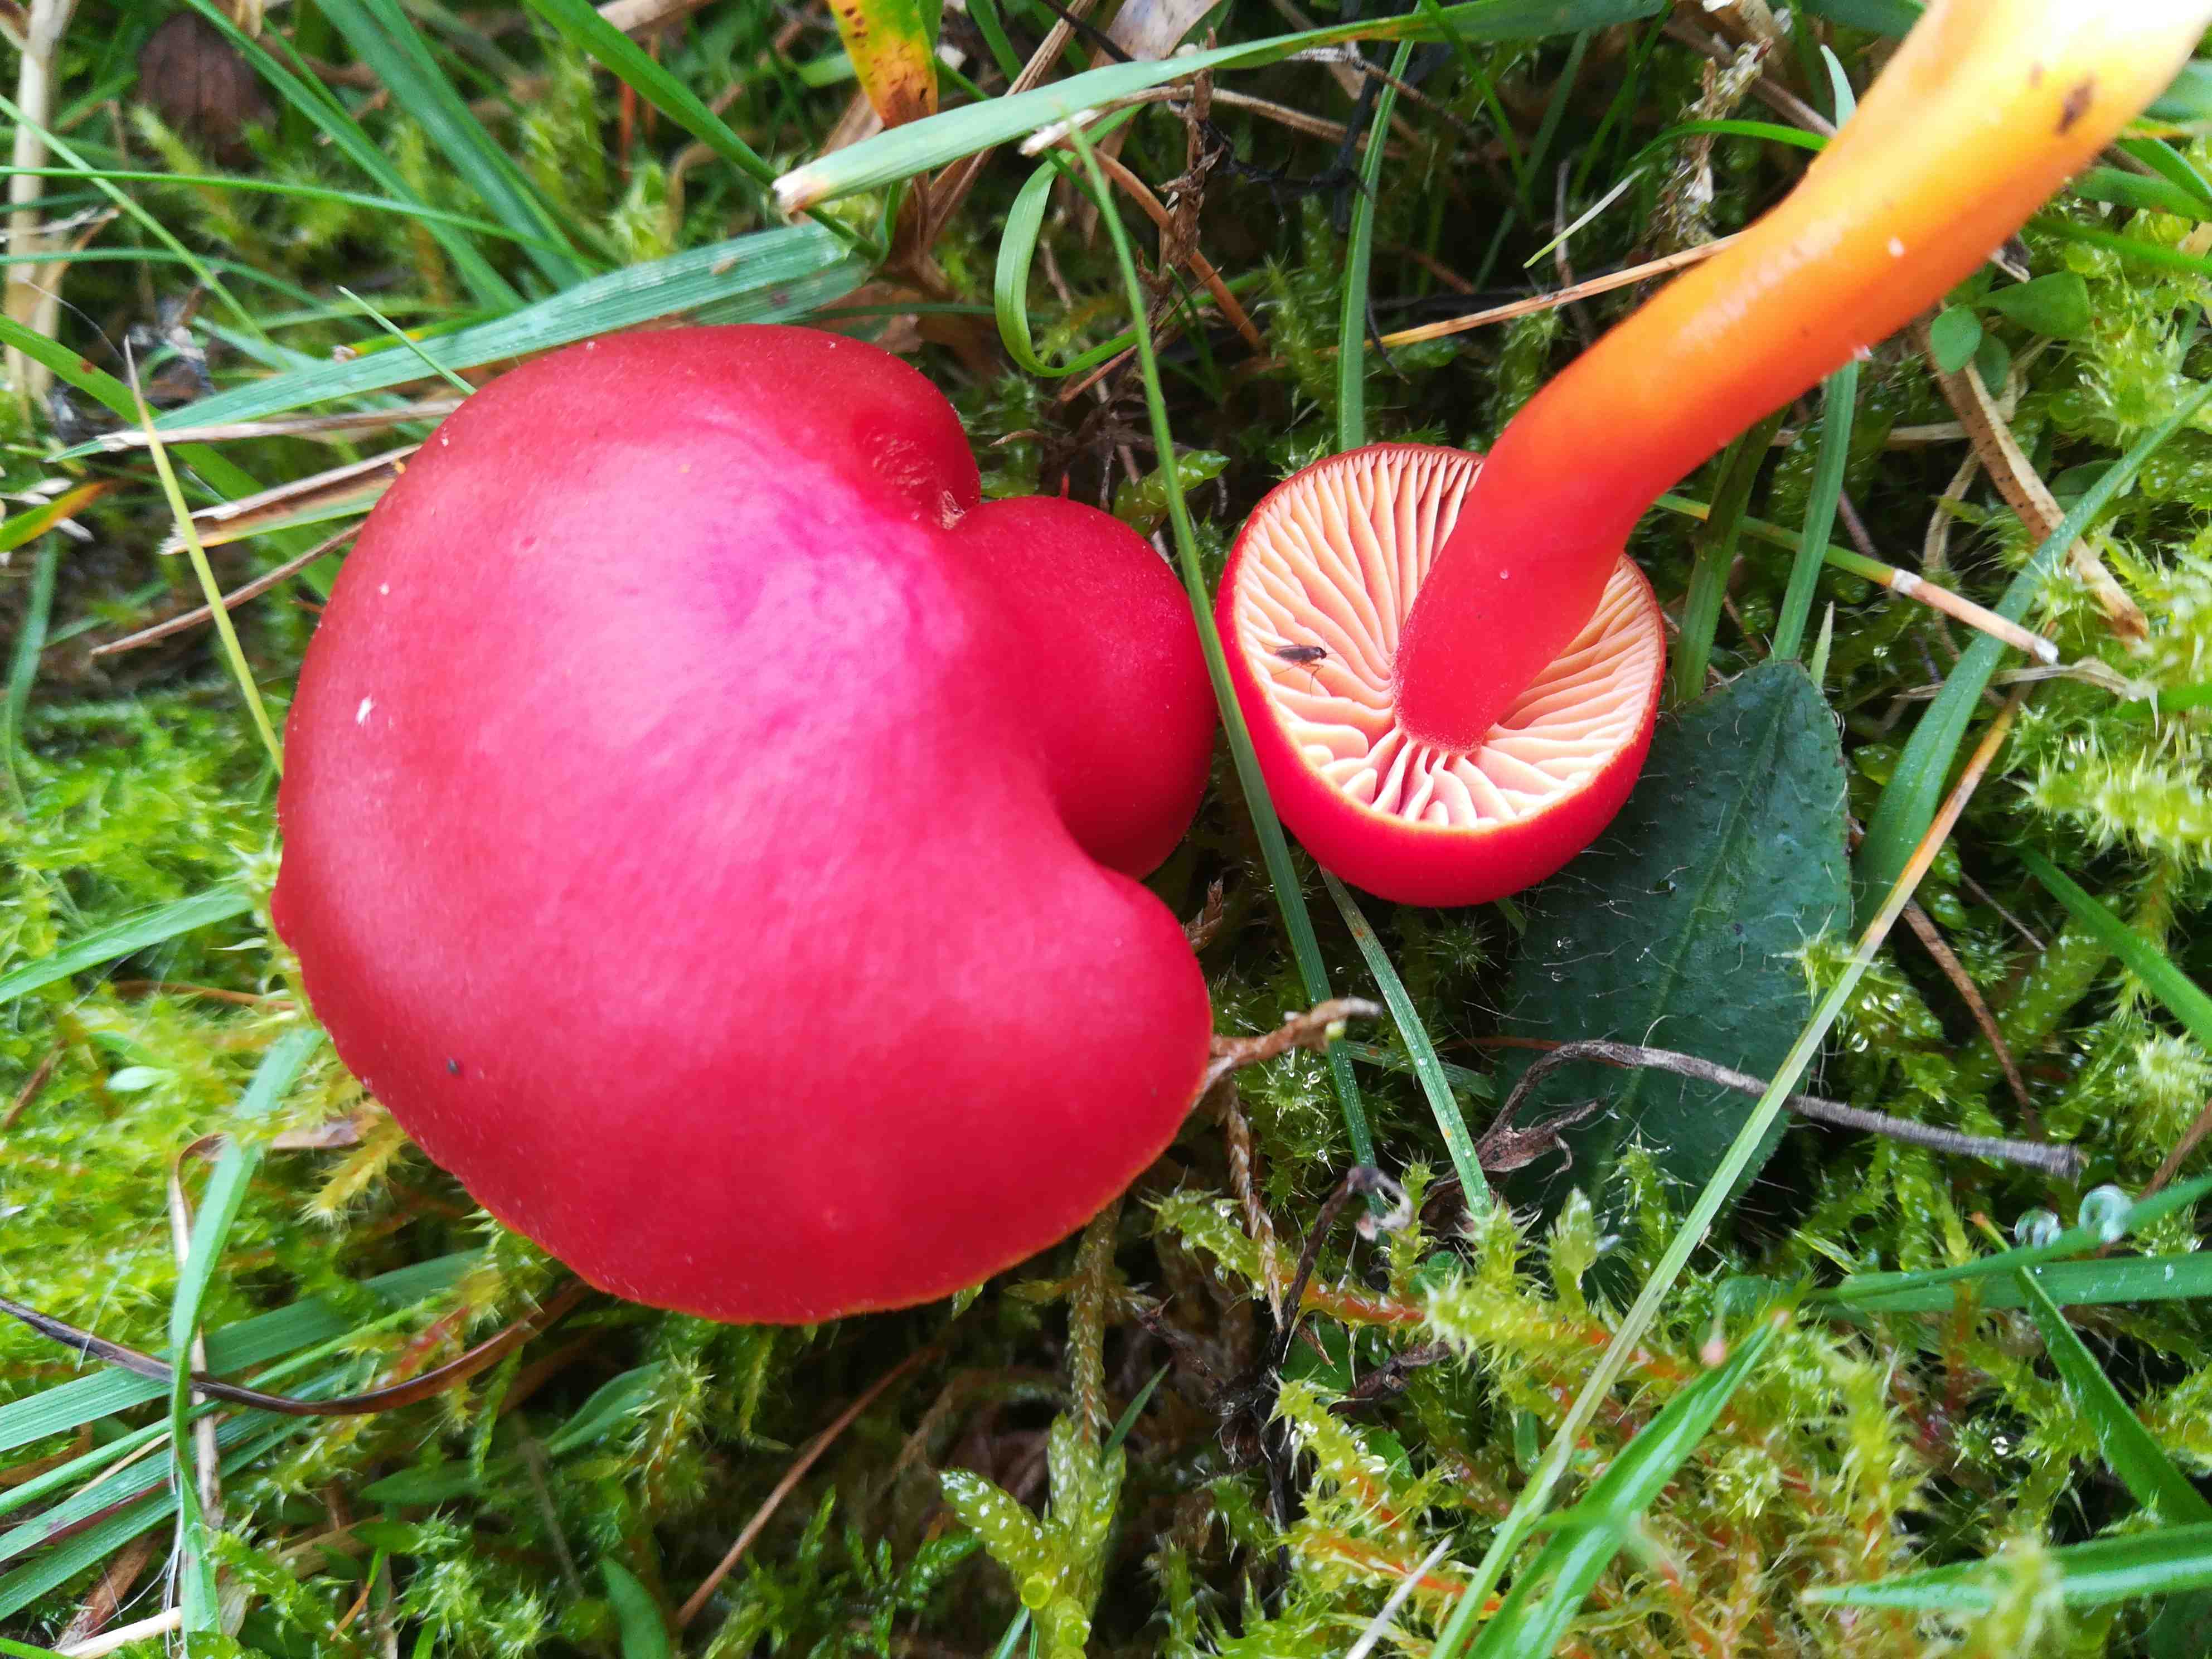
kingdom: Fungi
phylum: Basidiomycota
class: Agaricomycetes
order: Agaricales
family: Hygrophoraceae
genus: Hygrocybe
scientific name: Hygrocybe coccinea
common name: cinnober-vokshat
